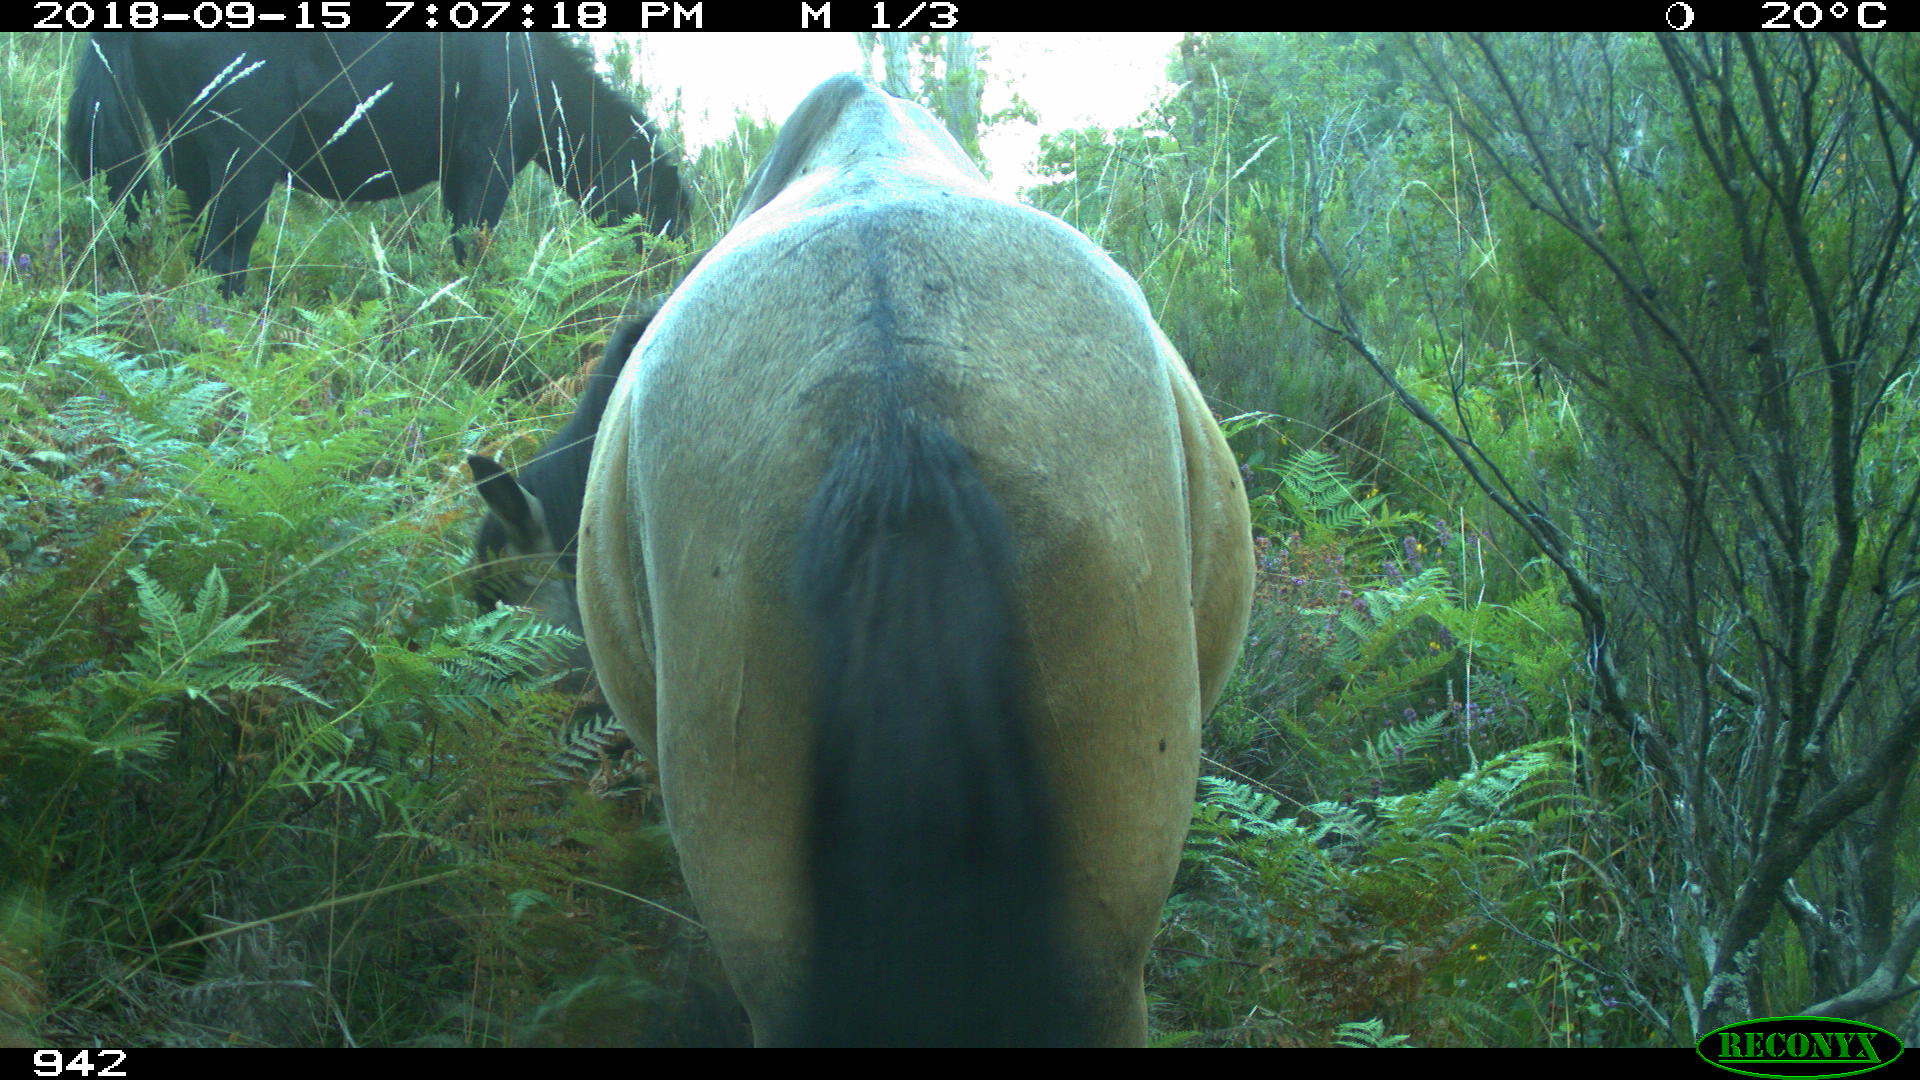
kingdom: Animalia
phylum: Chordata
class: Mammalia
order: Perissodactyla
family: Equidae
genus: Equus
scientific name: Equus caballus
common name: Horse
